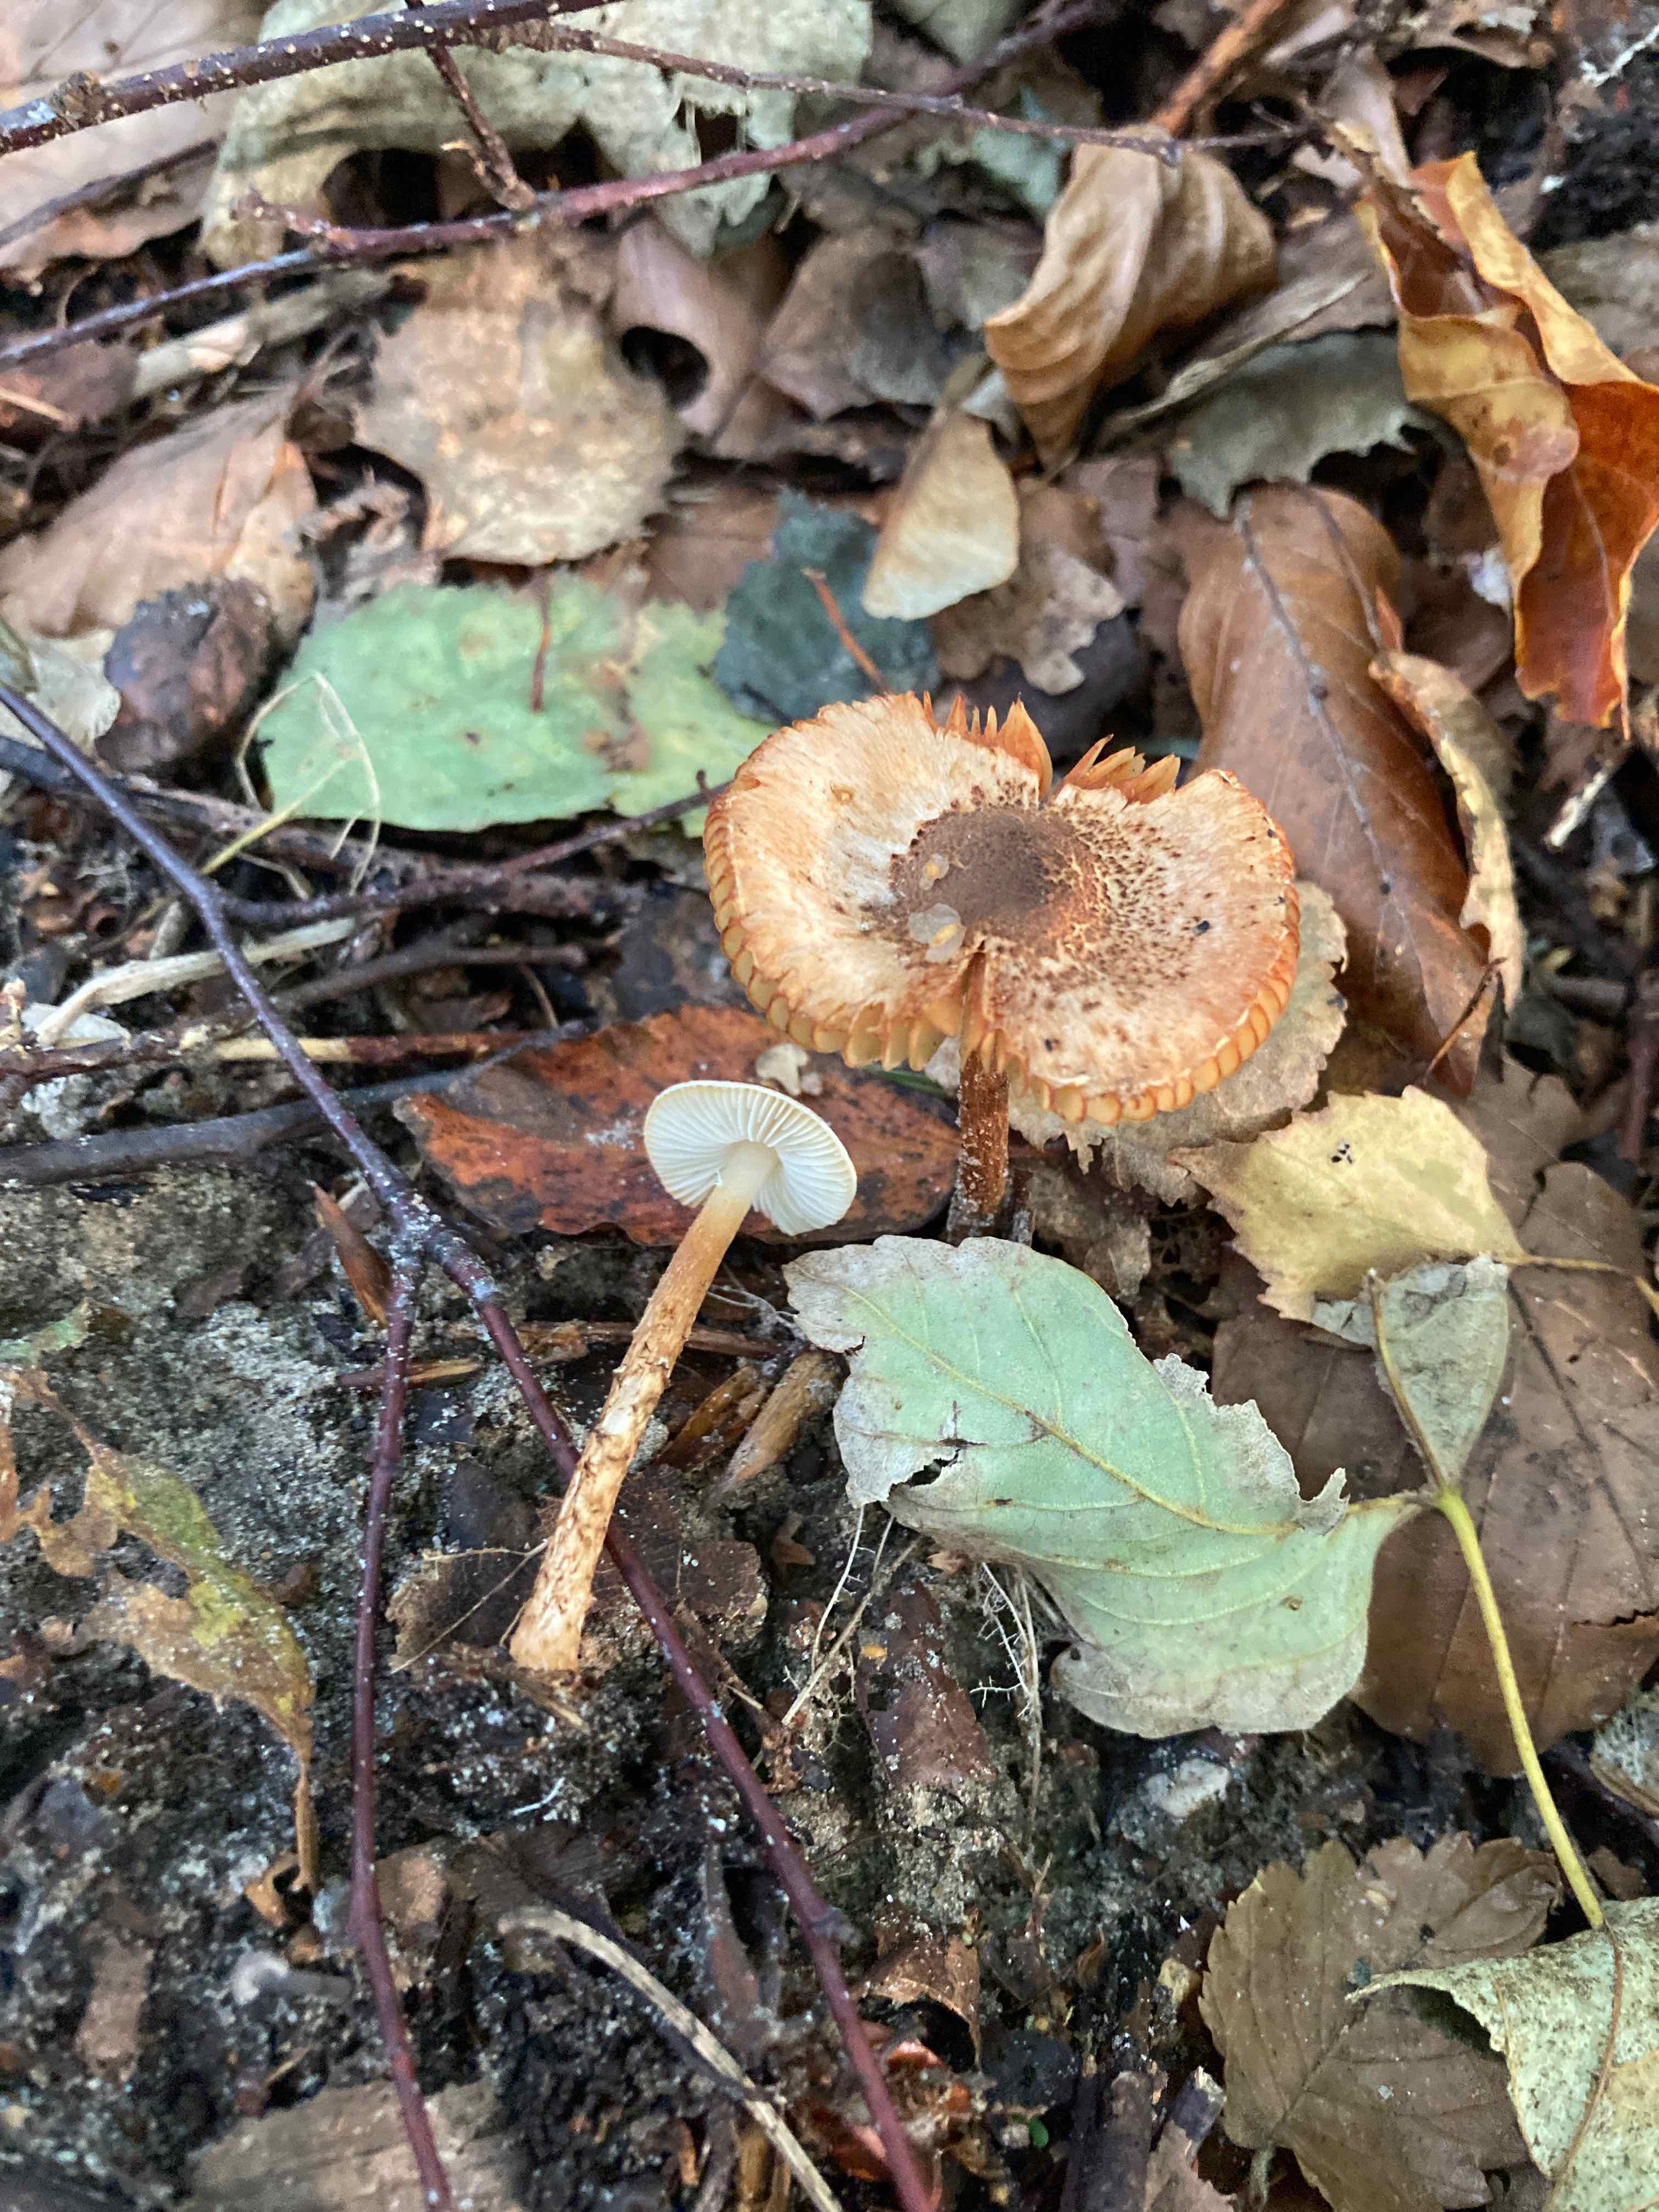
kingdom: Fungi
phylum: Basidiomycota
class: Agaricomycetes
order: Agaricales
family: Agaricaceae
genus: Lepiota
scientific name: Lepiota castanea
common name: kastaniebrun parasolhat
